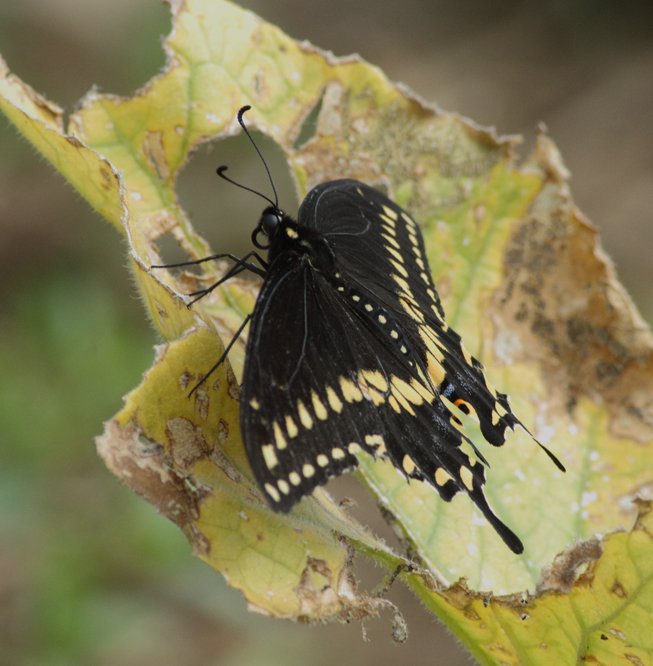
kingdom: Animalia
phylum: Arthropoda
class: Insecta
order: Lepidoptera
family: Papilionidae
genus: Papilio
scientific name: Papilio polyxenes
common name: Black Swallowtail
